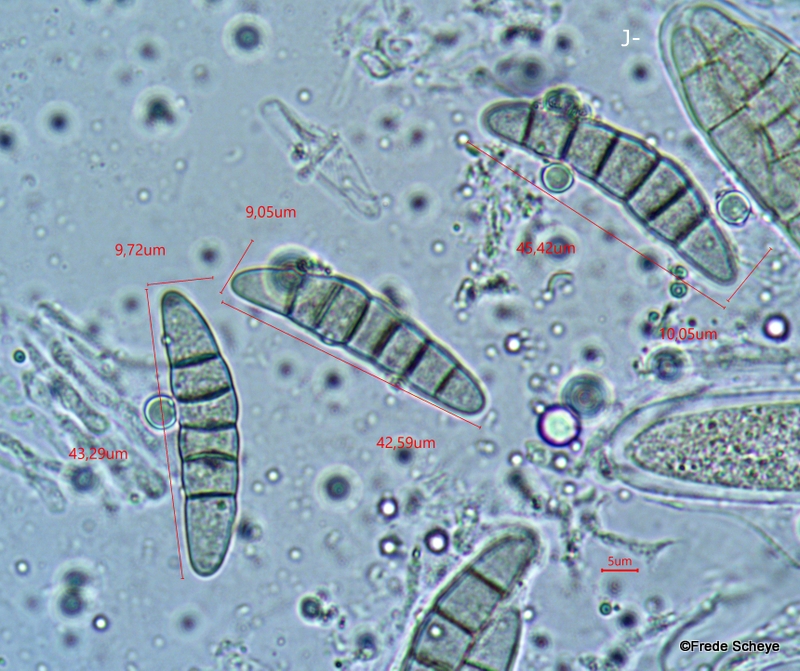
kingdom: Fungi
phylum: Ascomycota
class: Dothideomycetes
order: Pleosporales
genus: Rhopographus
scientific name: Rhopographus filicinus
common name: Bracken map
